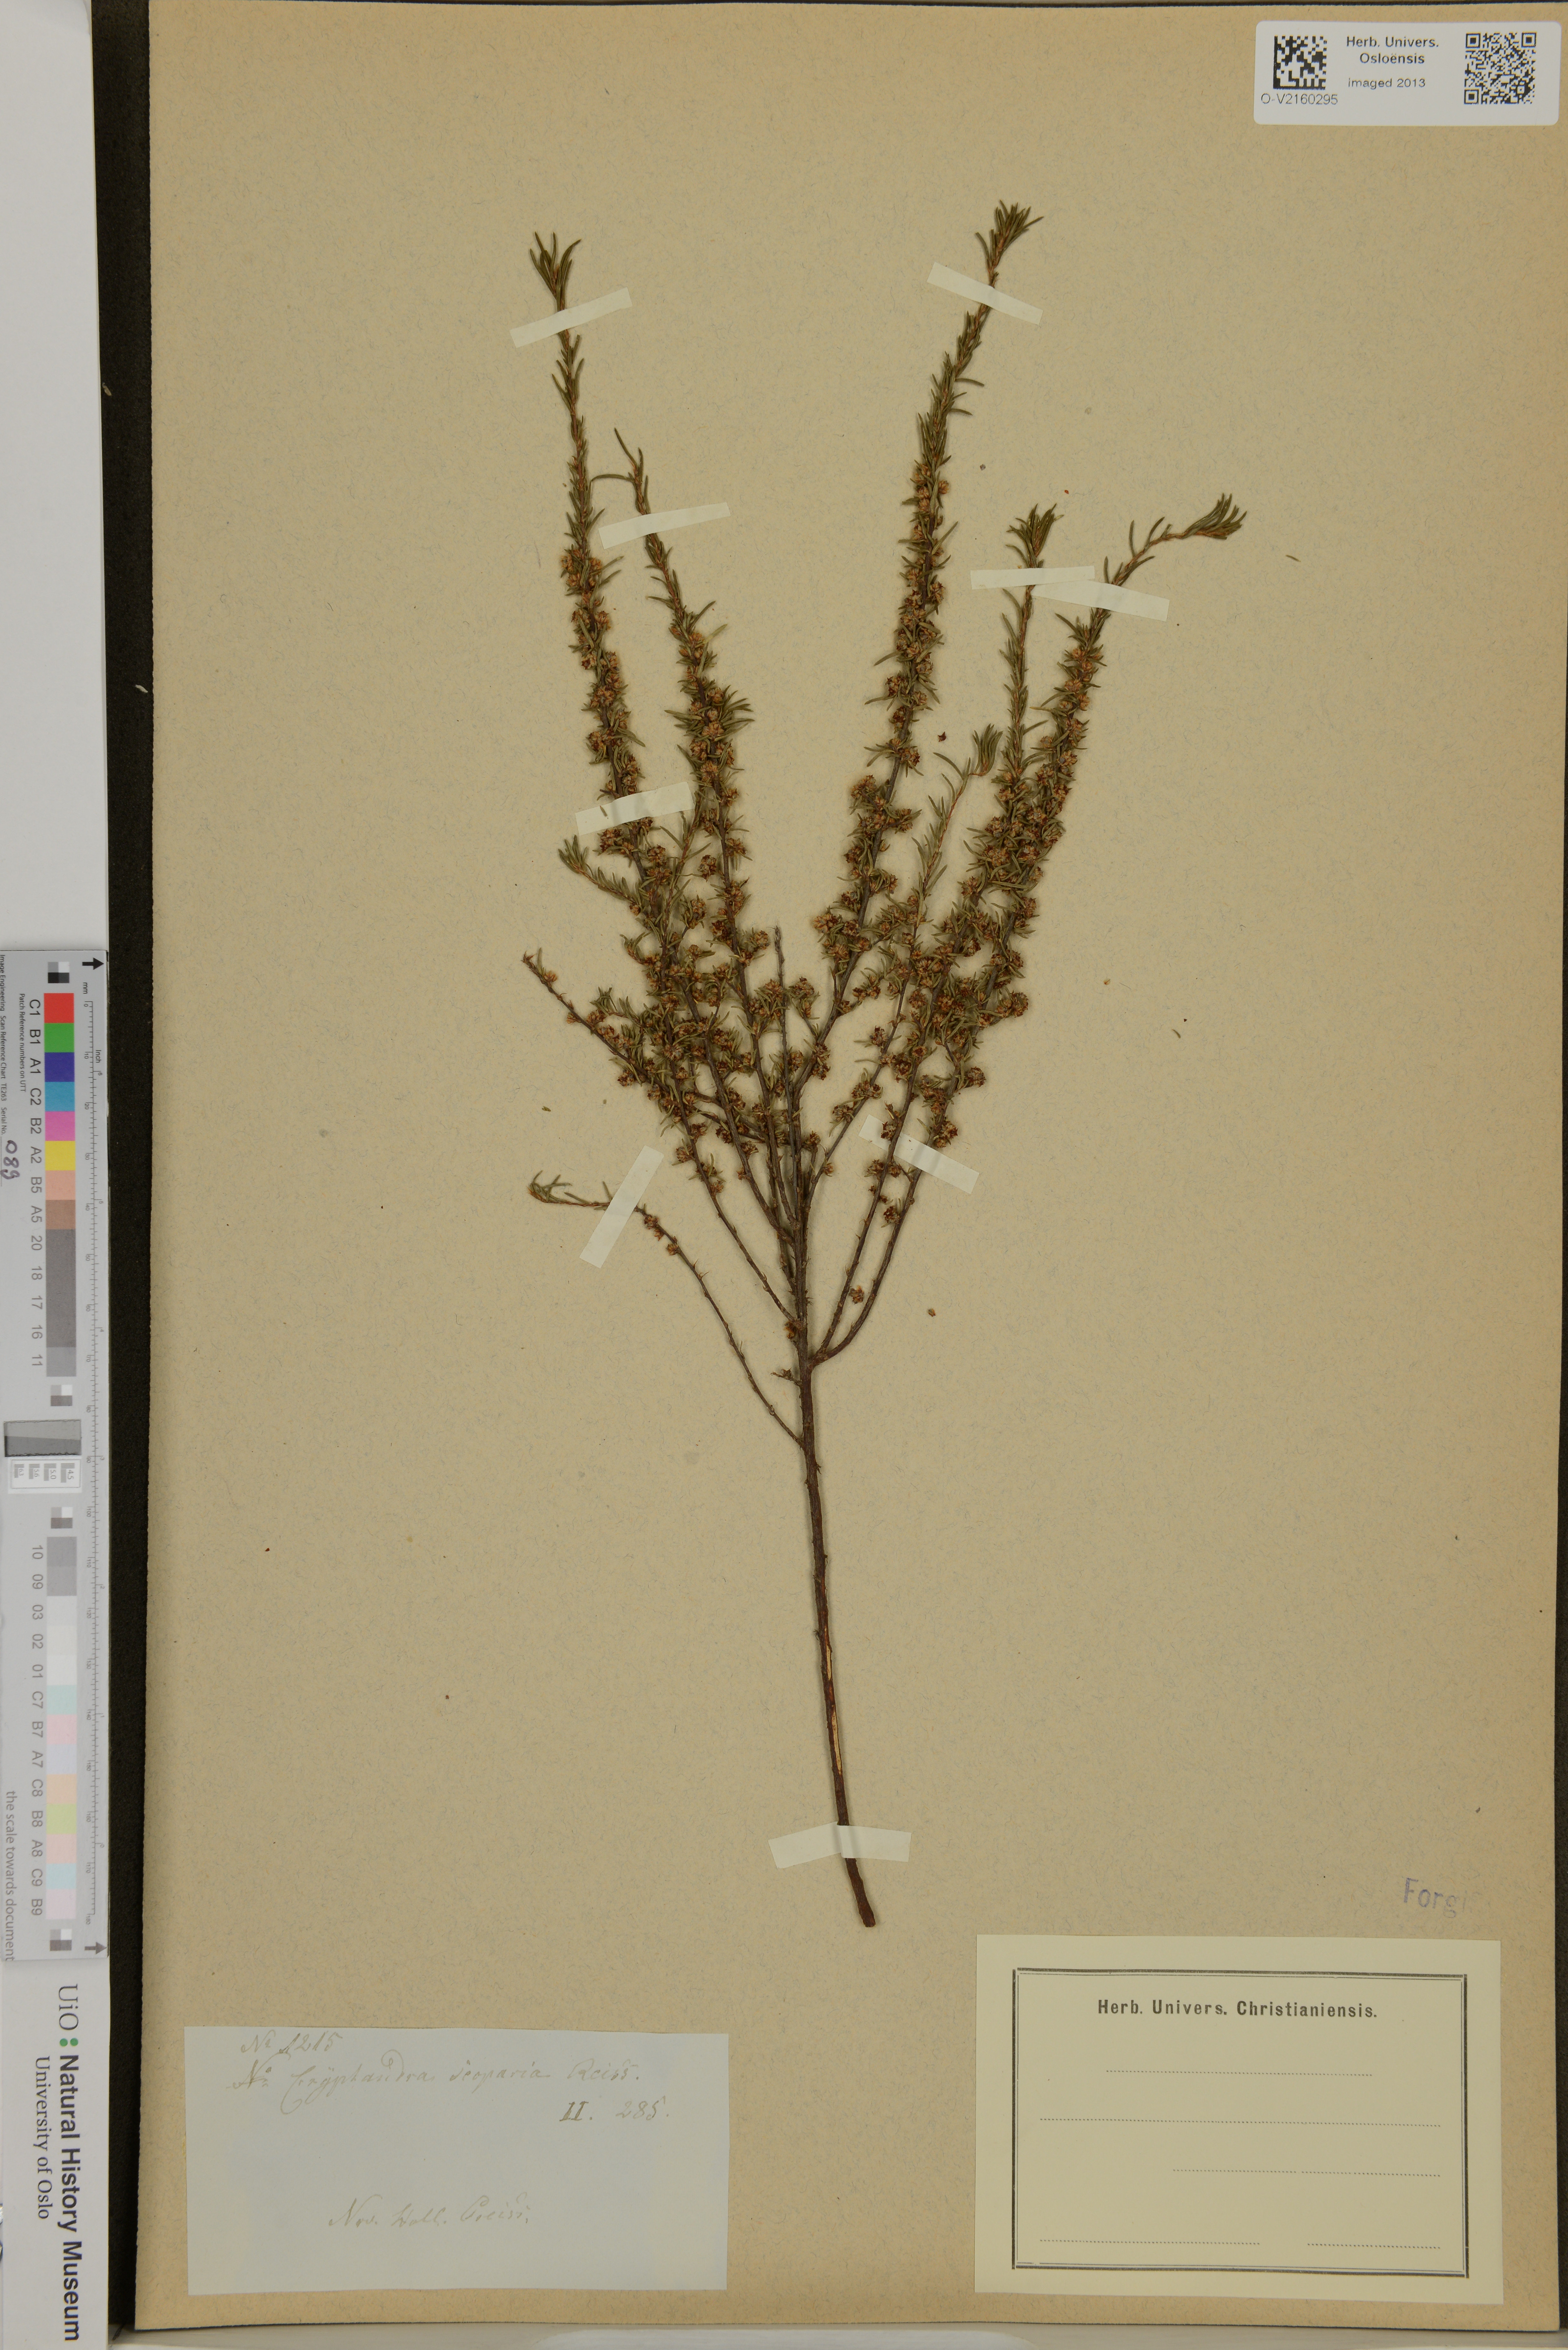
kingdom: Plantae
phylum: Tracheophyta
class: Magnoliopsida
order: Rosales
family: Rhamnaceae
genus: Cryptandra
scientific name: Cryptandra scoparia
